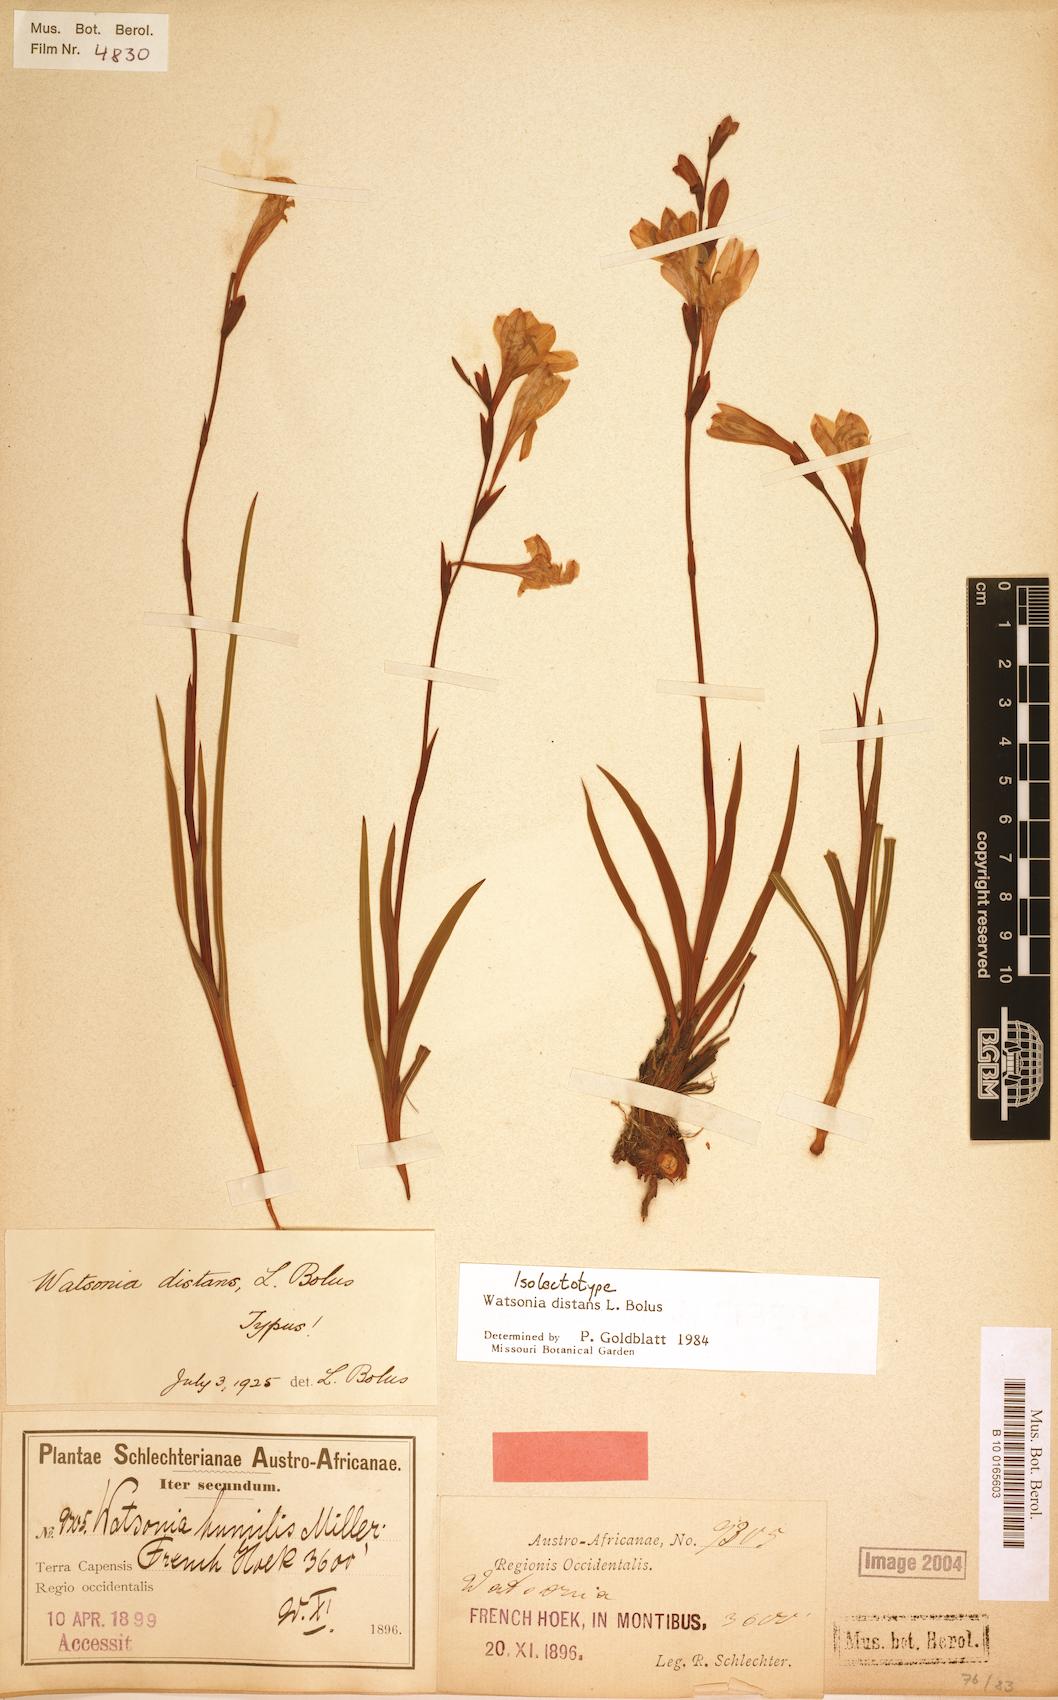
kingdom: Plantae
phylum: Tracheophyta
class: Liliopsida
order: Asparagales
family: Iridaceae
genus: Watsonia
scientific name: Watsonia distans
